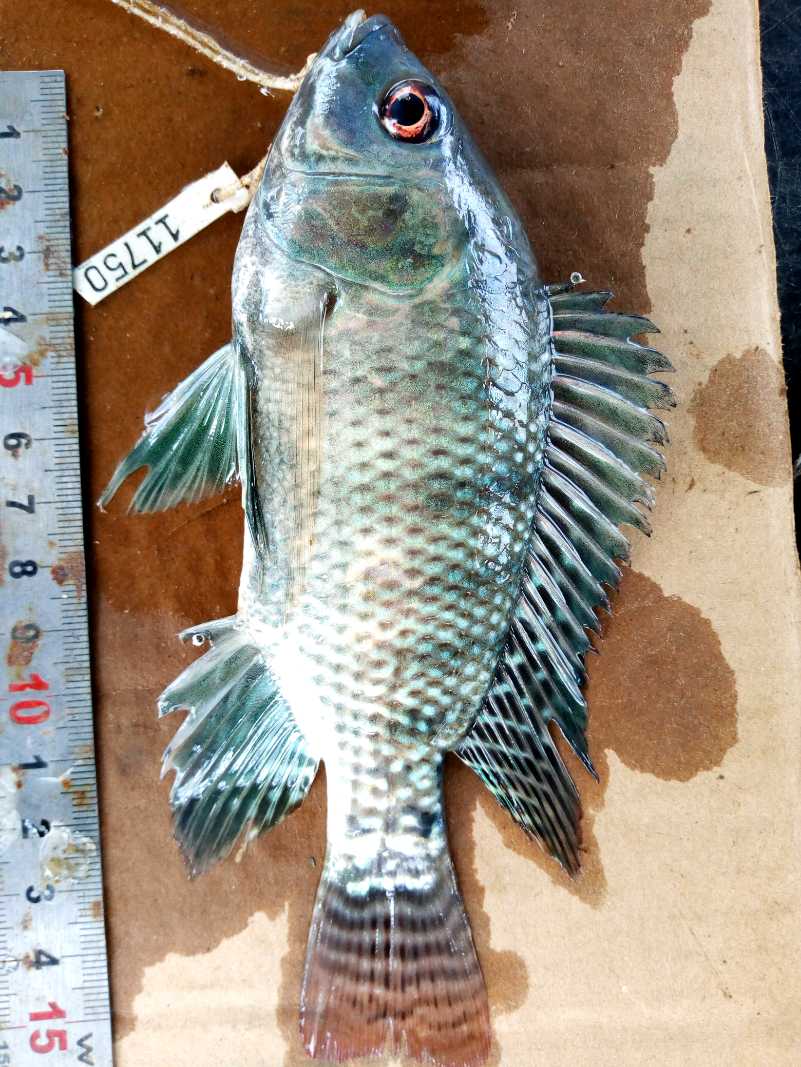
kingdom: Animalia
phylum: Chordata
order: Perciformes
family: Cichlidae
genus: Oreochromis
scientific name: Oreochromis niloticus
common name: Nile tilapia
